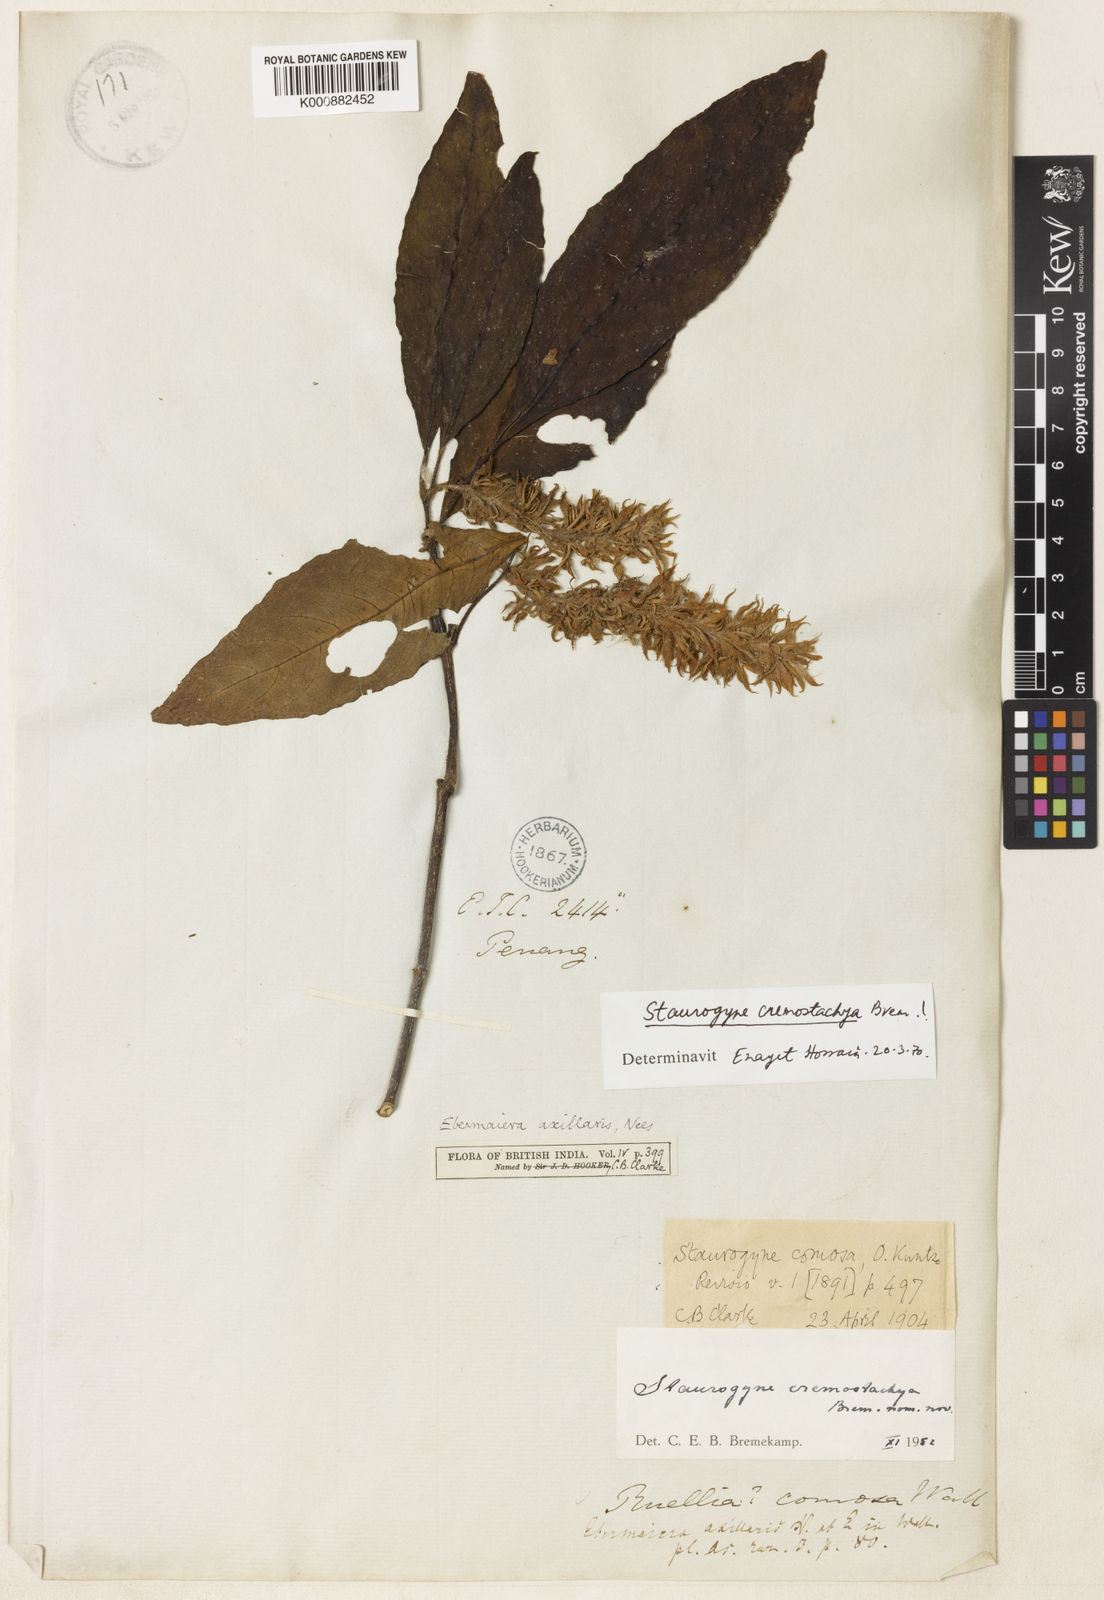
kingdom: Plantae
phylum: Tracheophyta
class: Magnoliopsida
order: Lamiales
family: Acanthaceae
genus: Staurogyne
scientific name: Staurogyne comosa
